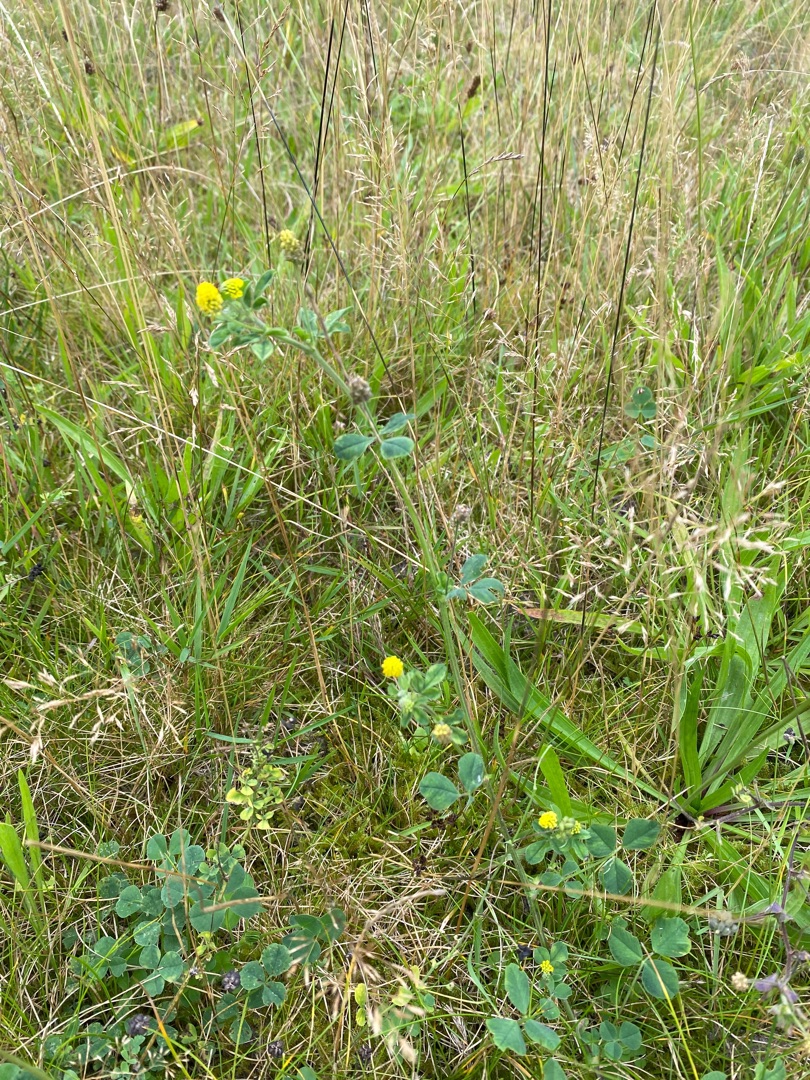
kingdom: Plantae
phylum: Tracheophyta
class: Magnoliopsida
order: Fabales
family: Fabaceae
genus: Medicago
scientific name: Medicago lupulina
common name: Humle-sneglebælg
